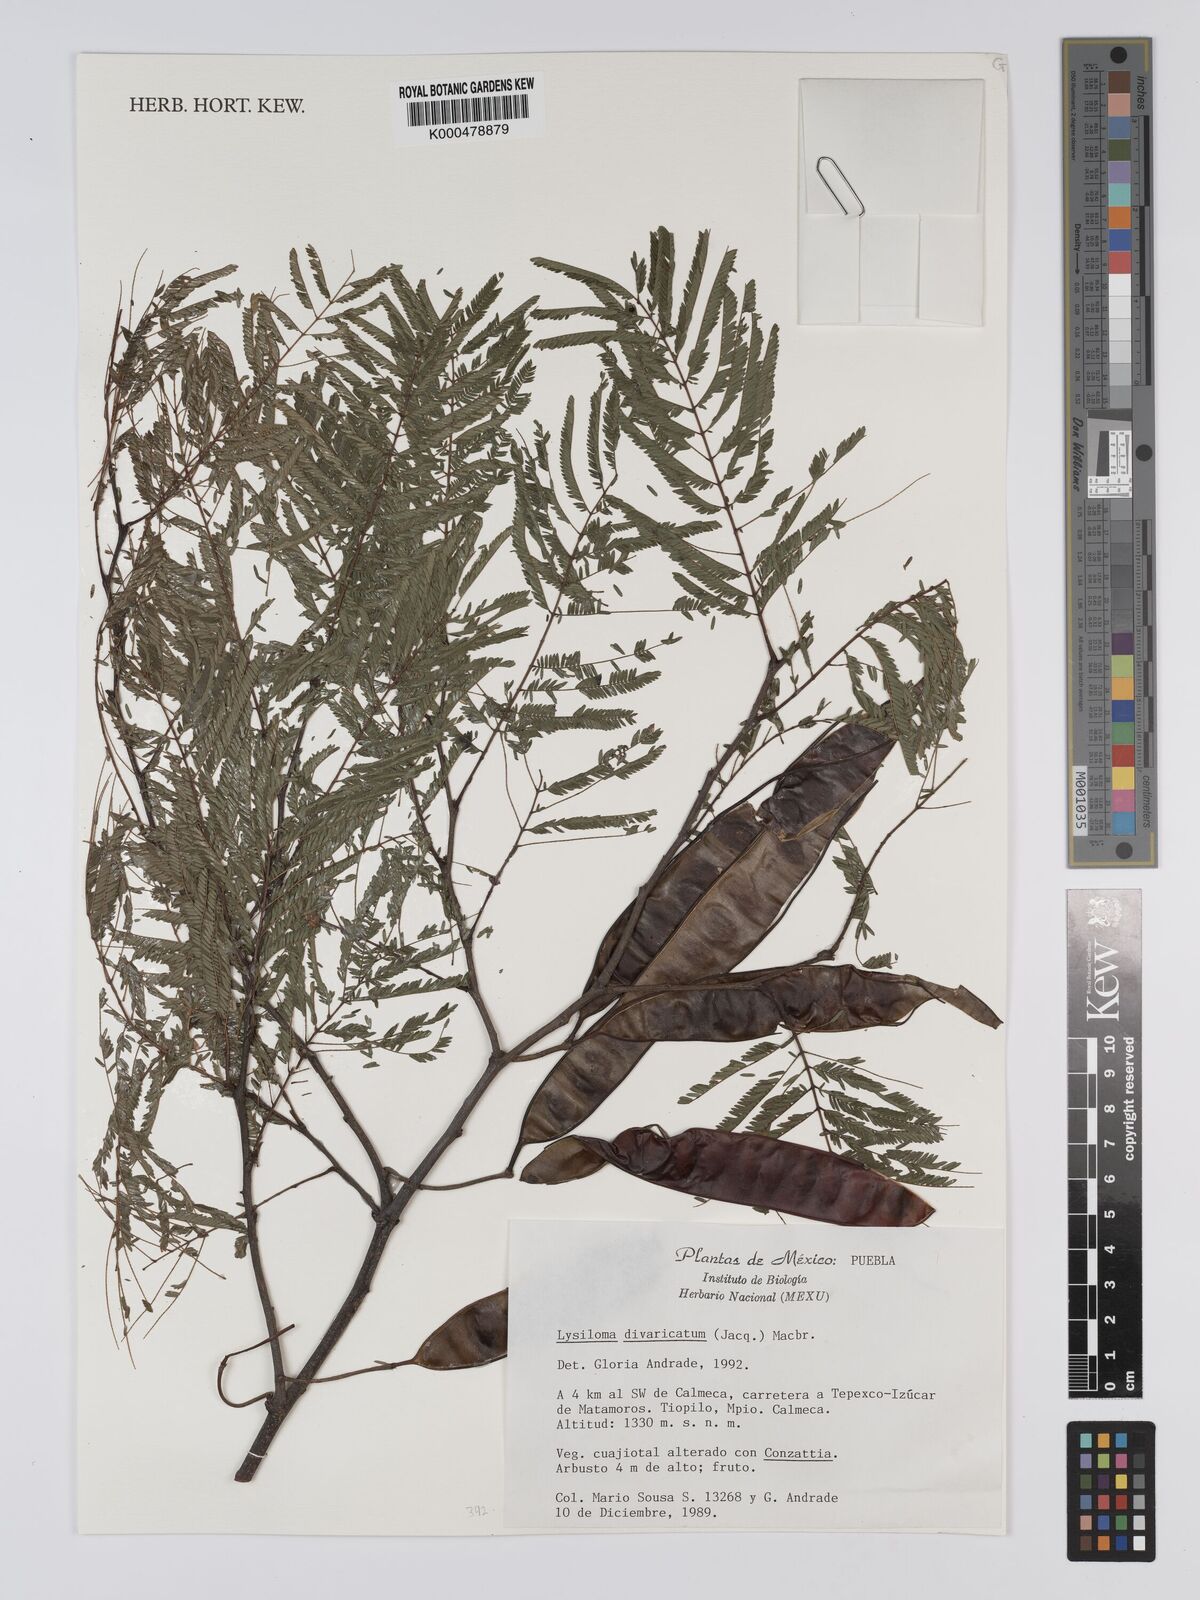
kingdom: Plantae
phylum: Tracheophyta
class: Magnoliopsida
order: Fabales
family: Fabaceae
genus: Lysiloma
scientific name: Lysiloma divaricatum
